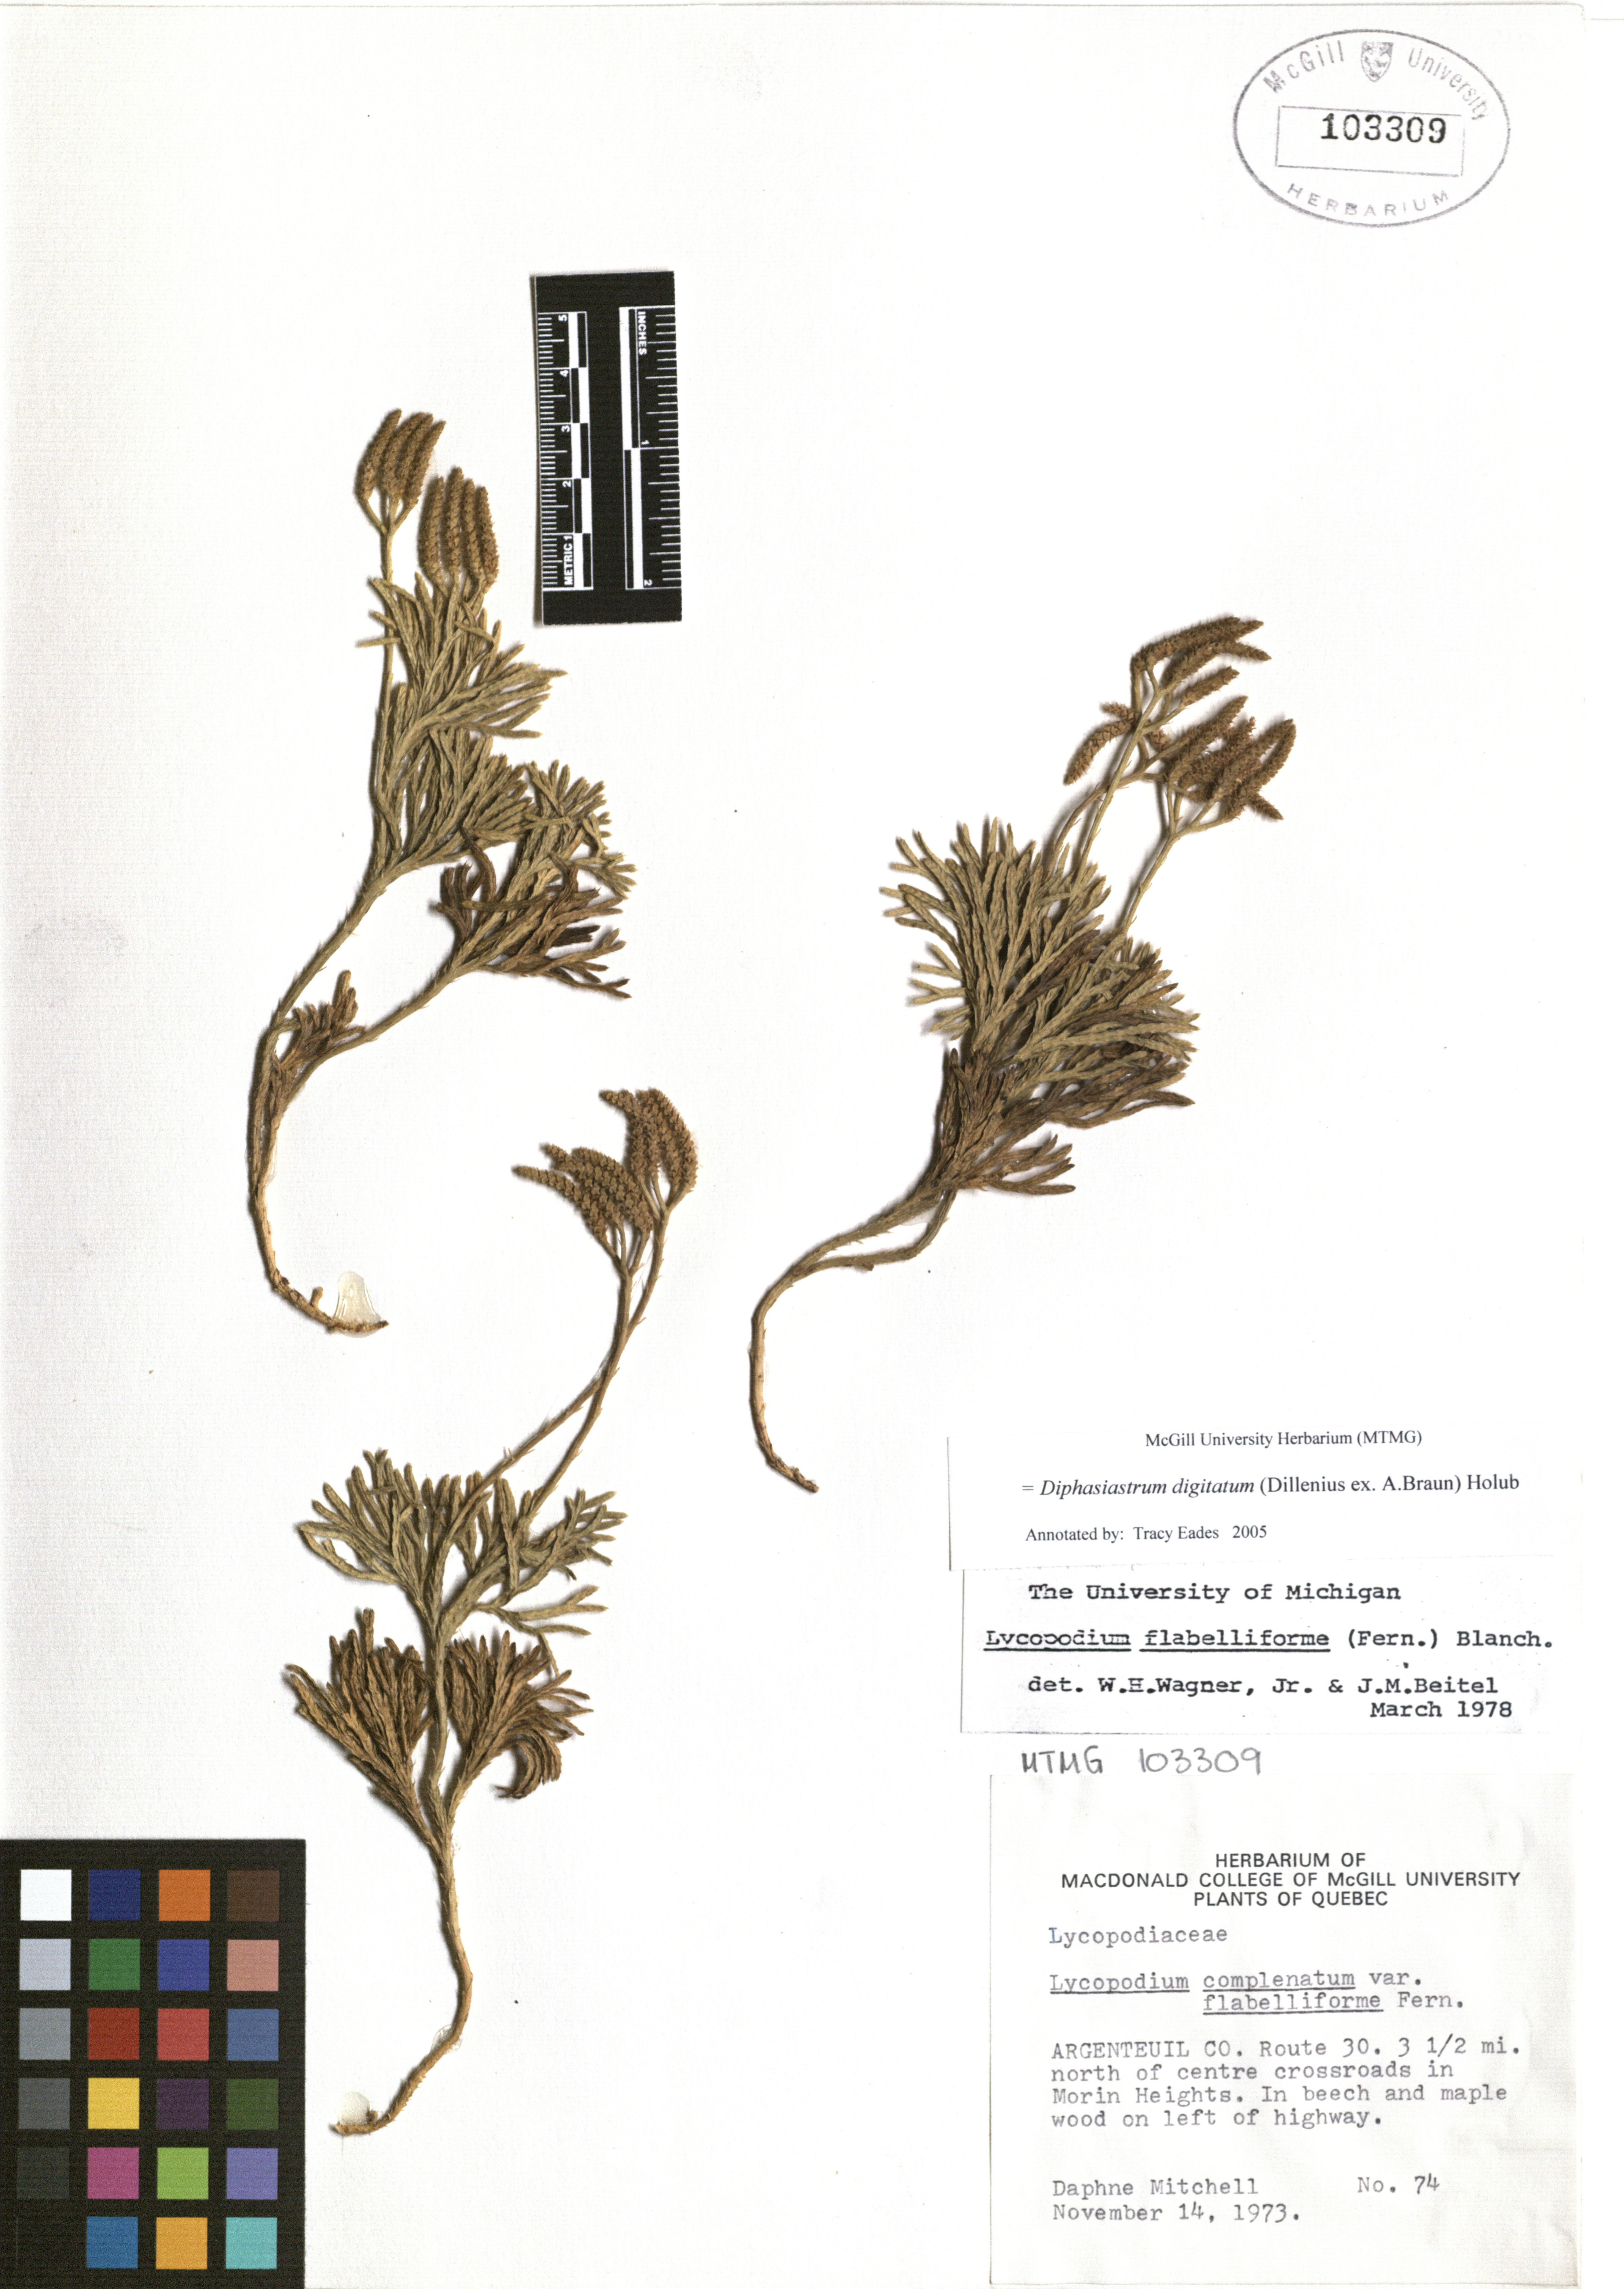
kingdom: Plantae
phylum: Tracheophyta
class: Lycopodiopsida
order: Lycopodiales
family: Lycopodiaceae
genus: Diphasiastrum
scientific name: Diphasiastrum digitatum
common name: Southern running-pine
